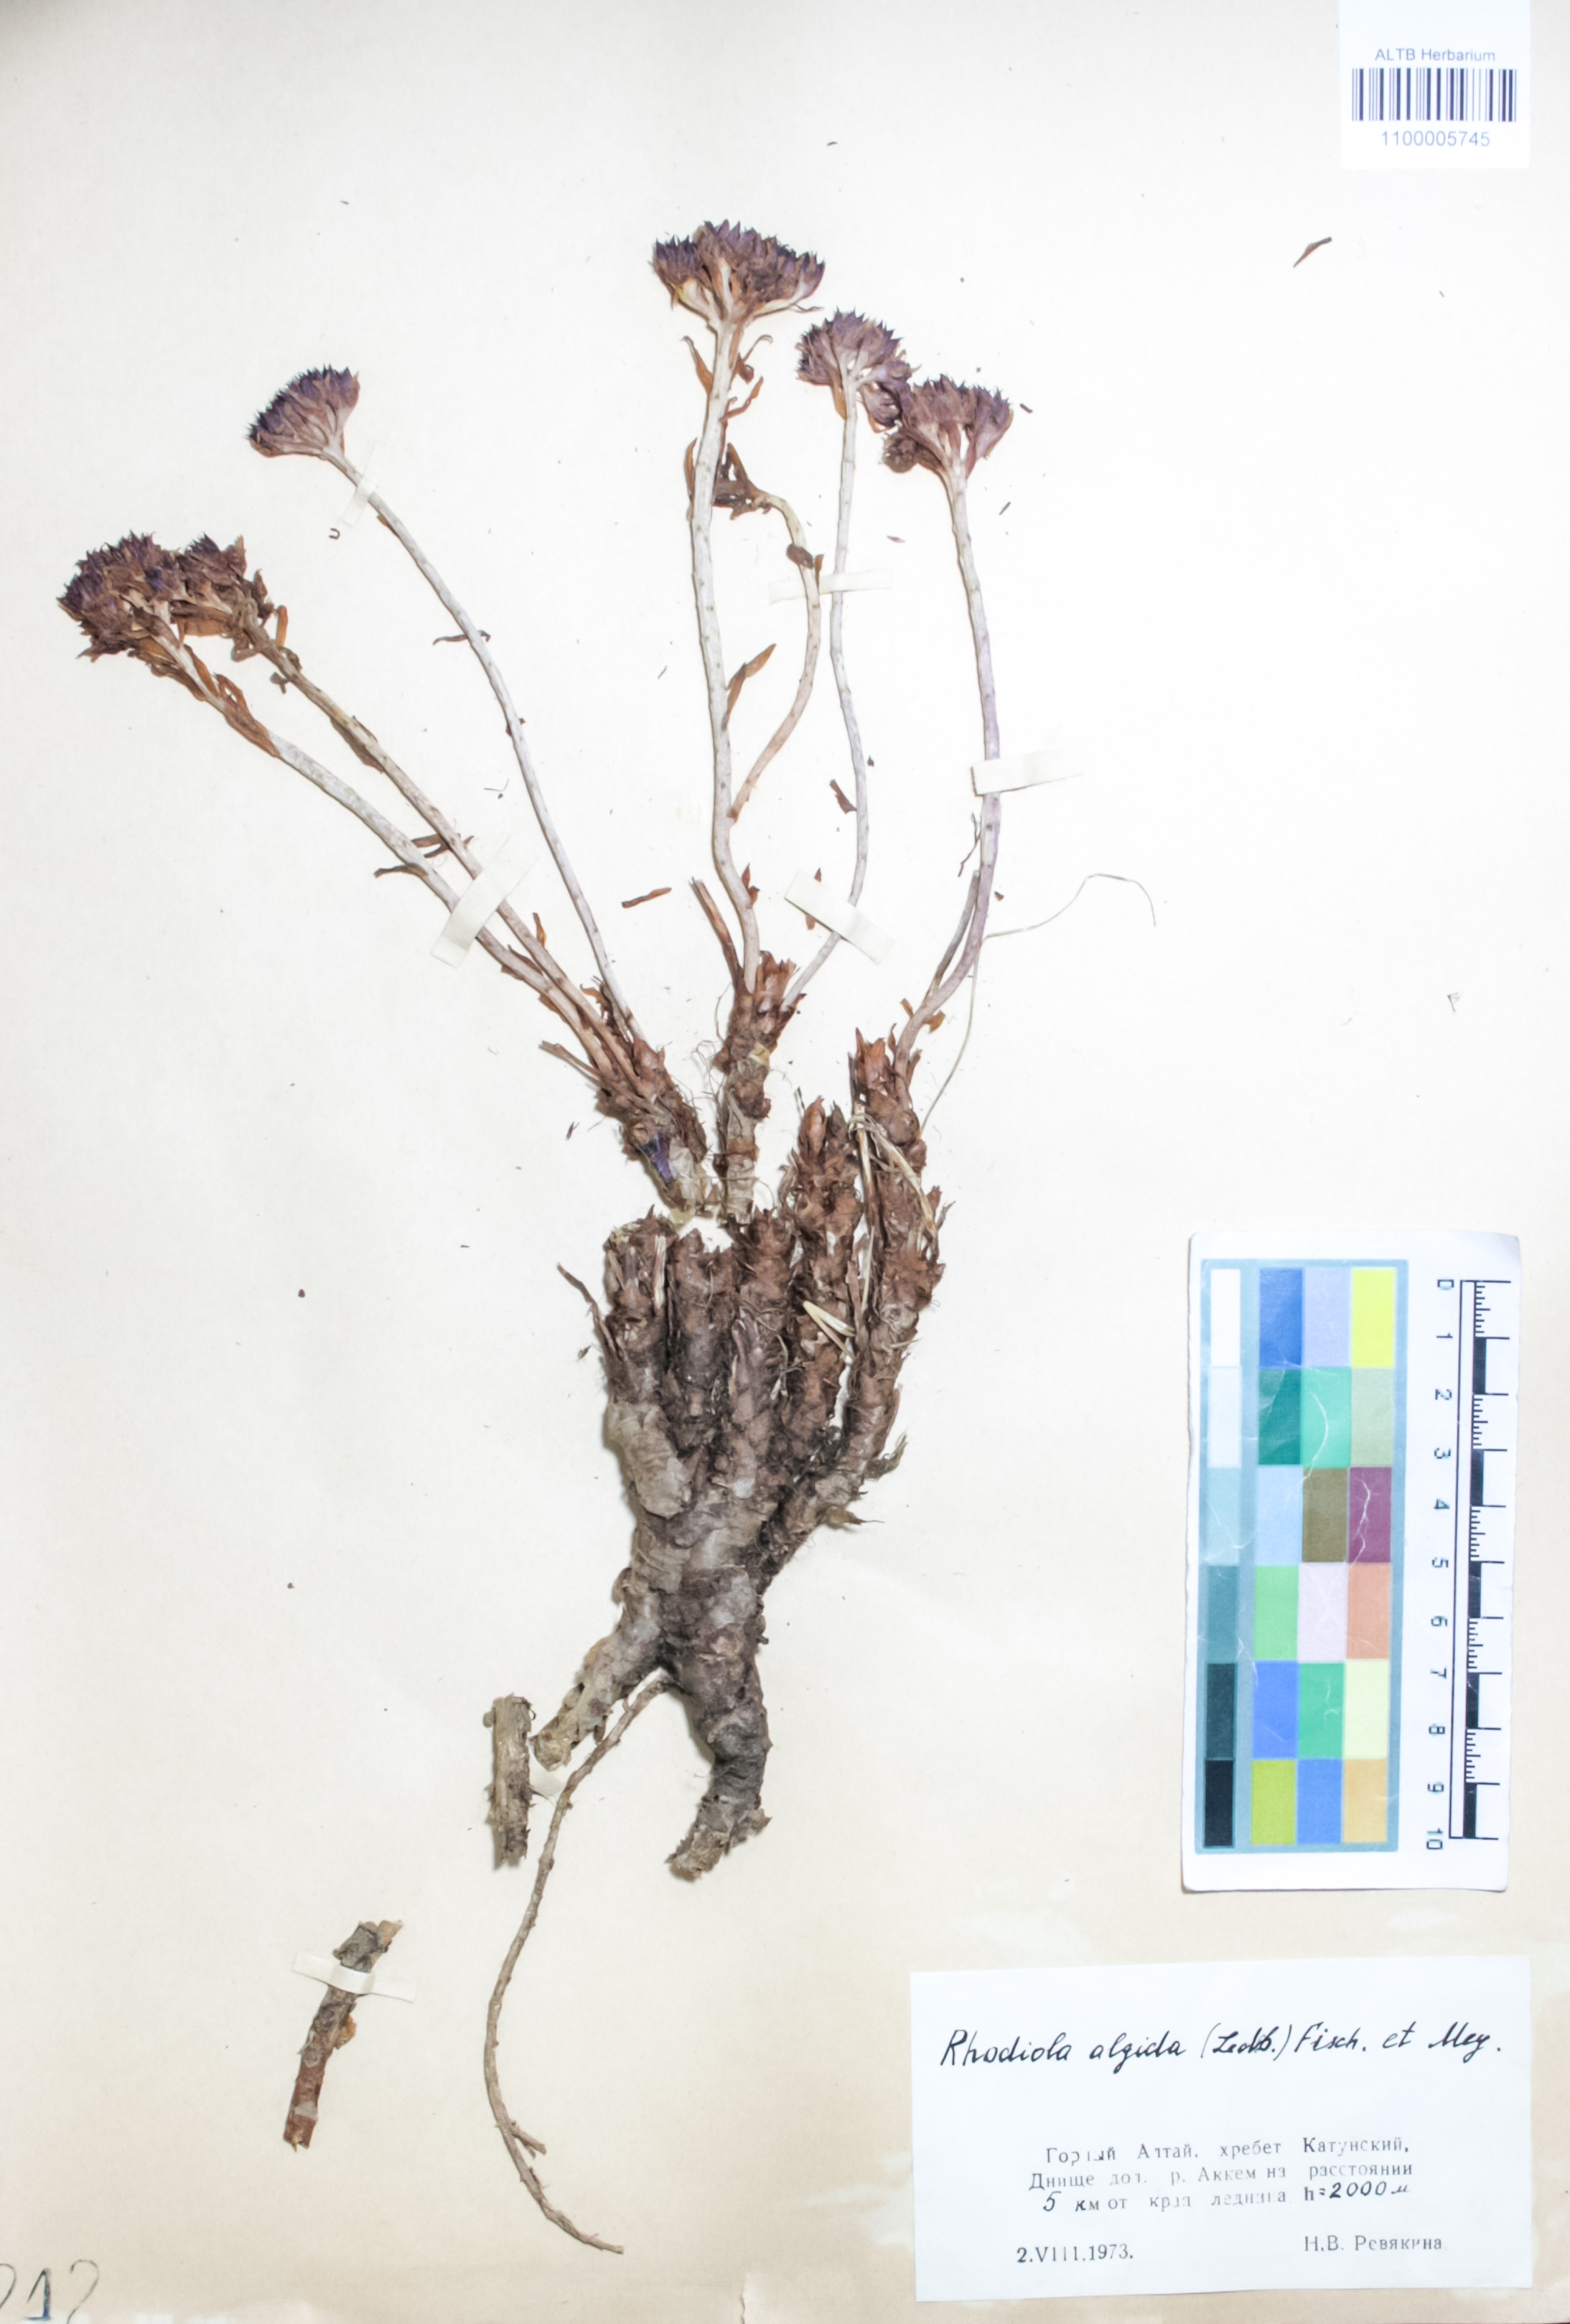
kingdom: Plantae
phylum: Tracheophyta
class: Magnoliopsida
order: Saxifragales
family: Crassulaceae
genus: Rhodiola
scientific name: Rhodiola algida
